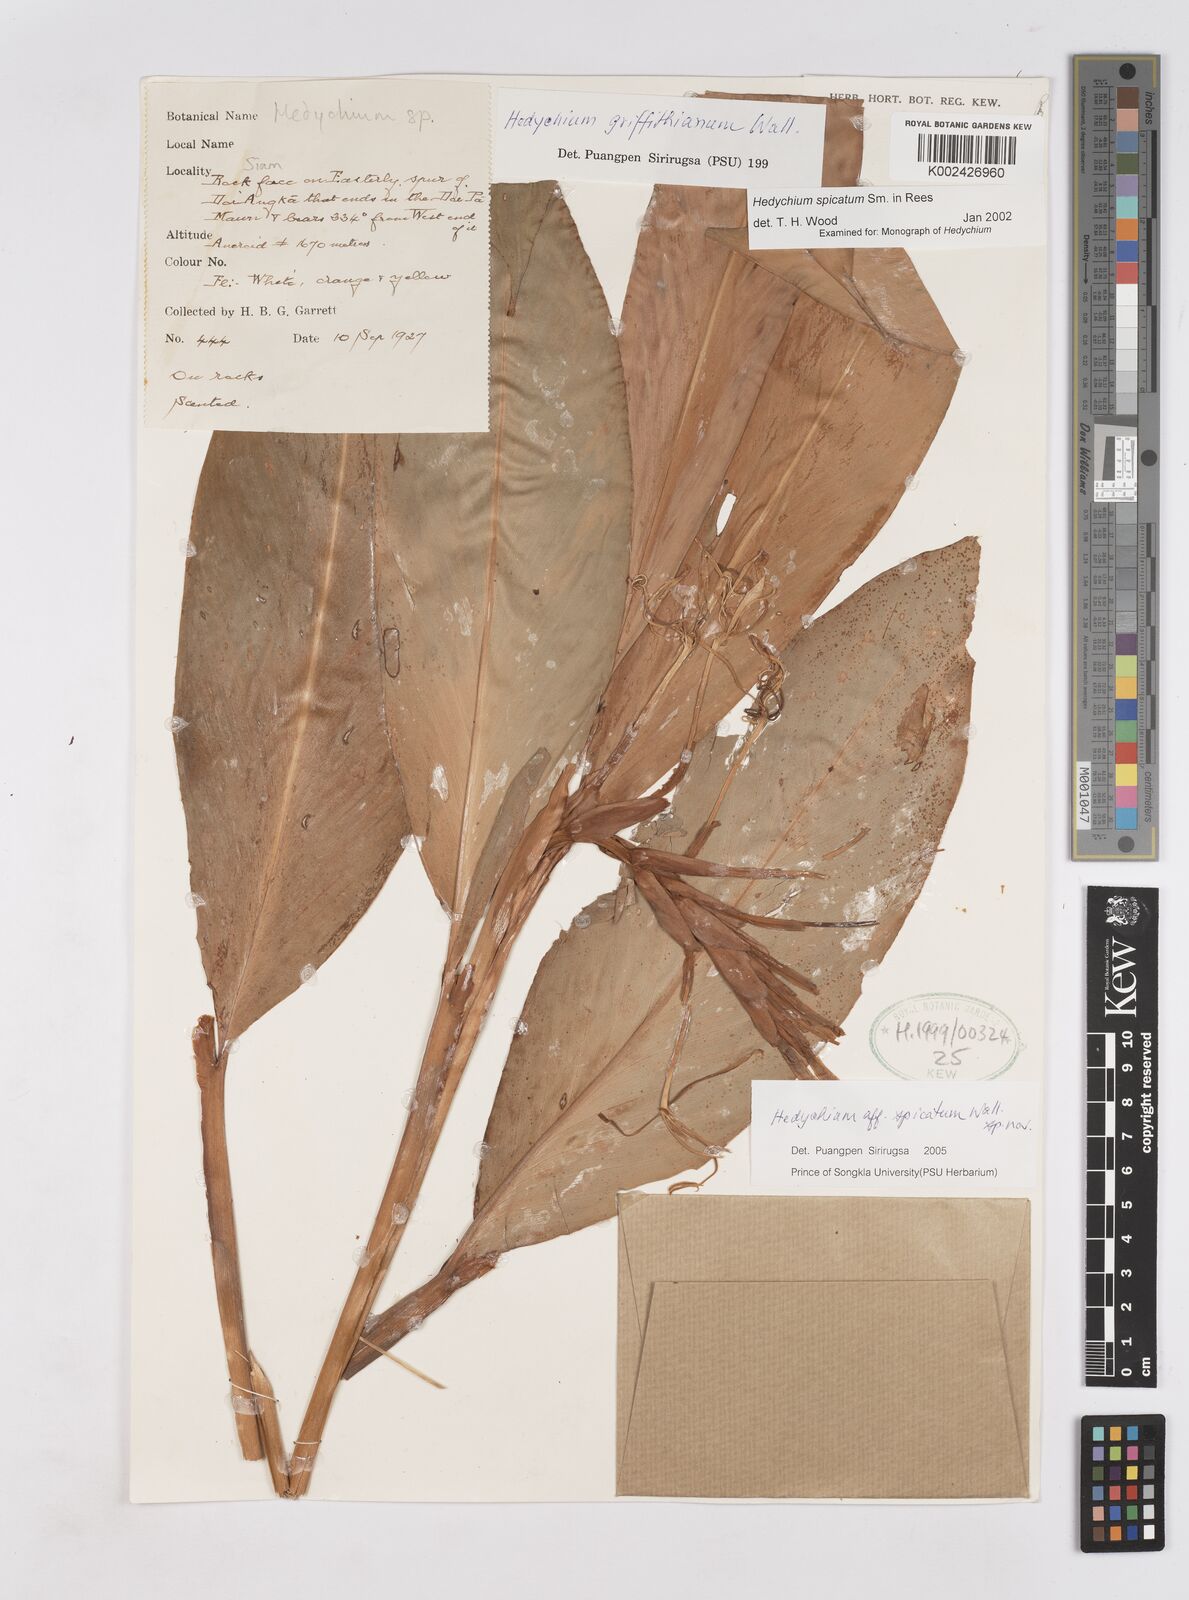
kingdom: Plantae
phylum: Tracheophyta
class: Liliopsida
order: Zingiberales
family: Zingiberaceae
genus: Hedychium
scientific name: Hedychium spicatum
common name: Spiked ginger-lily
